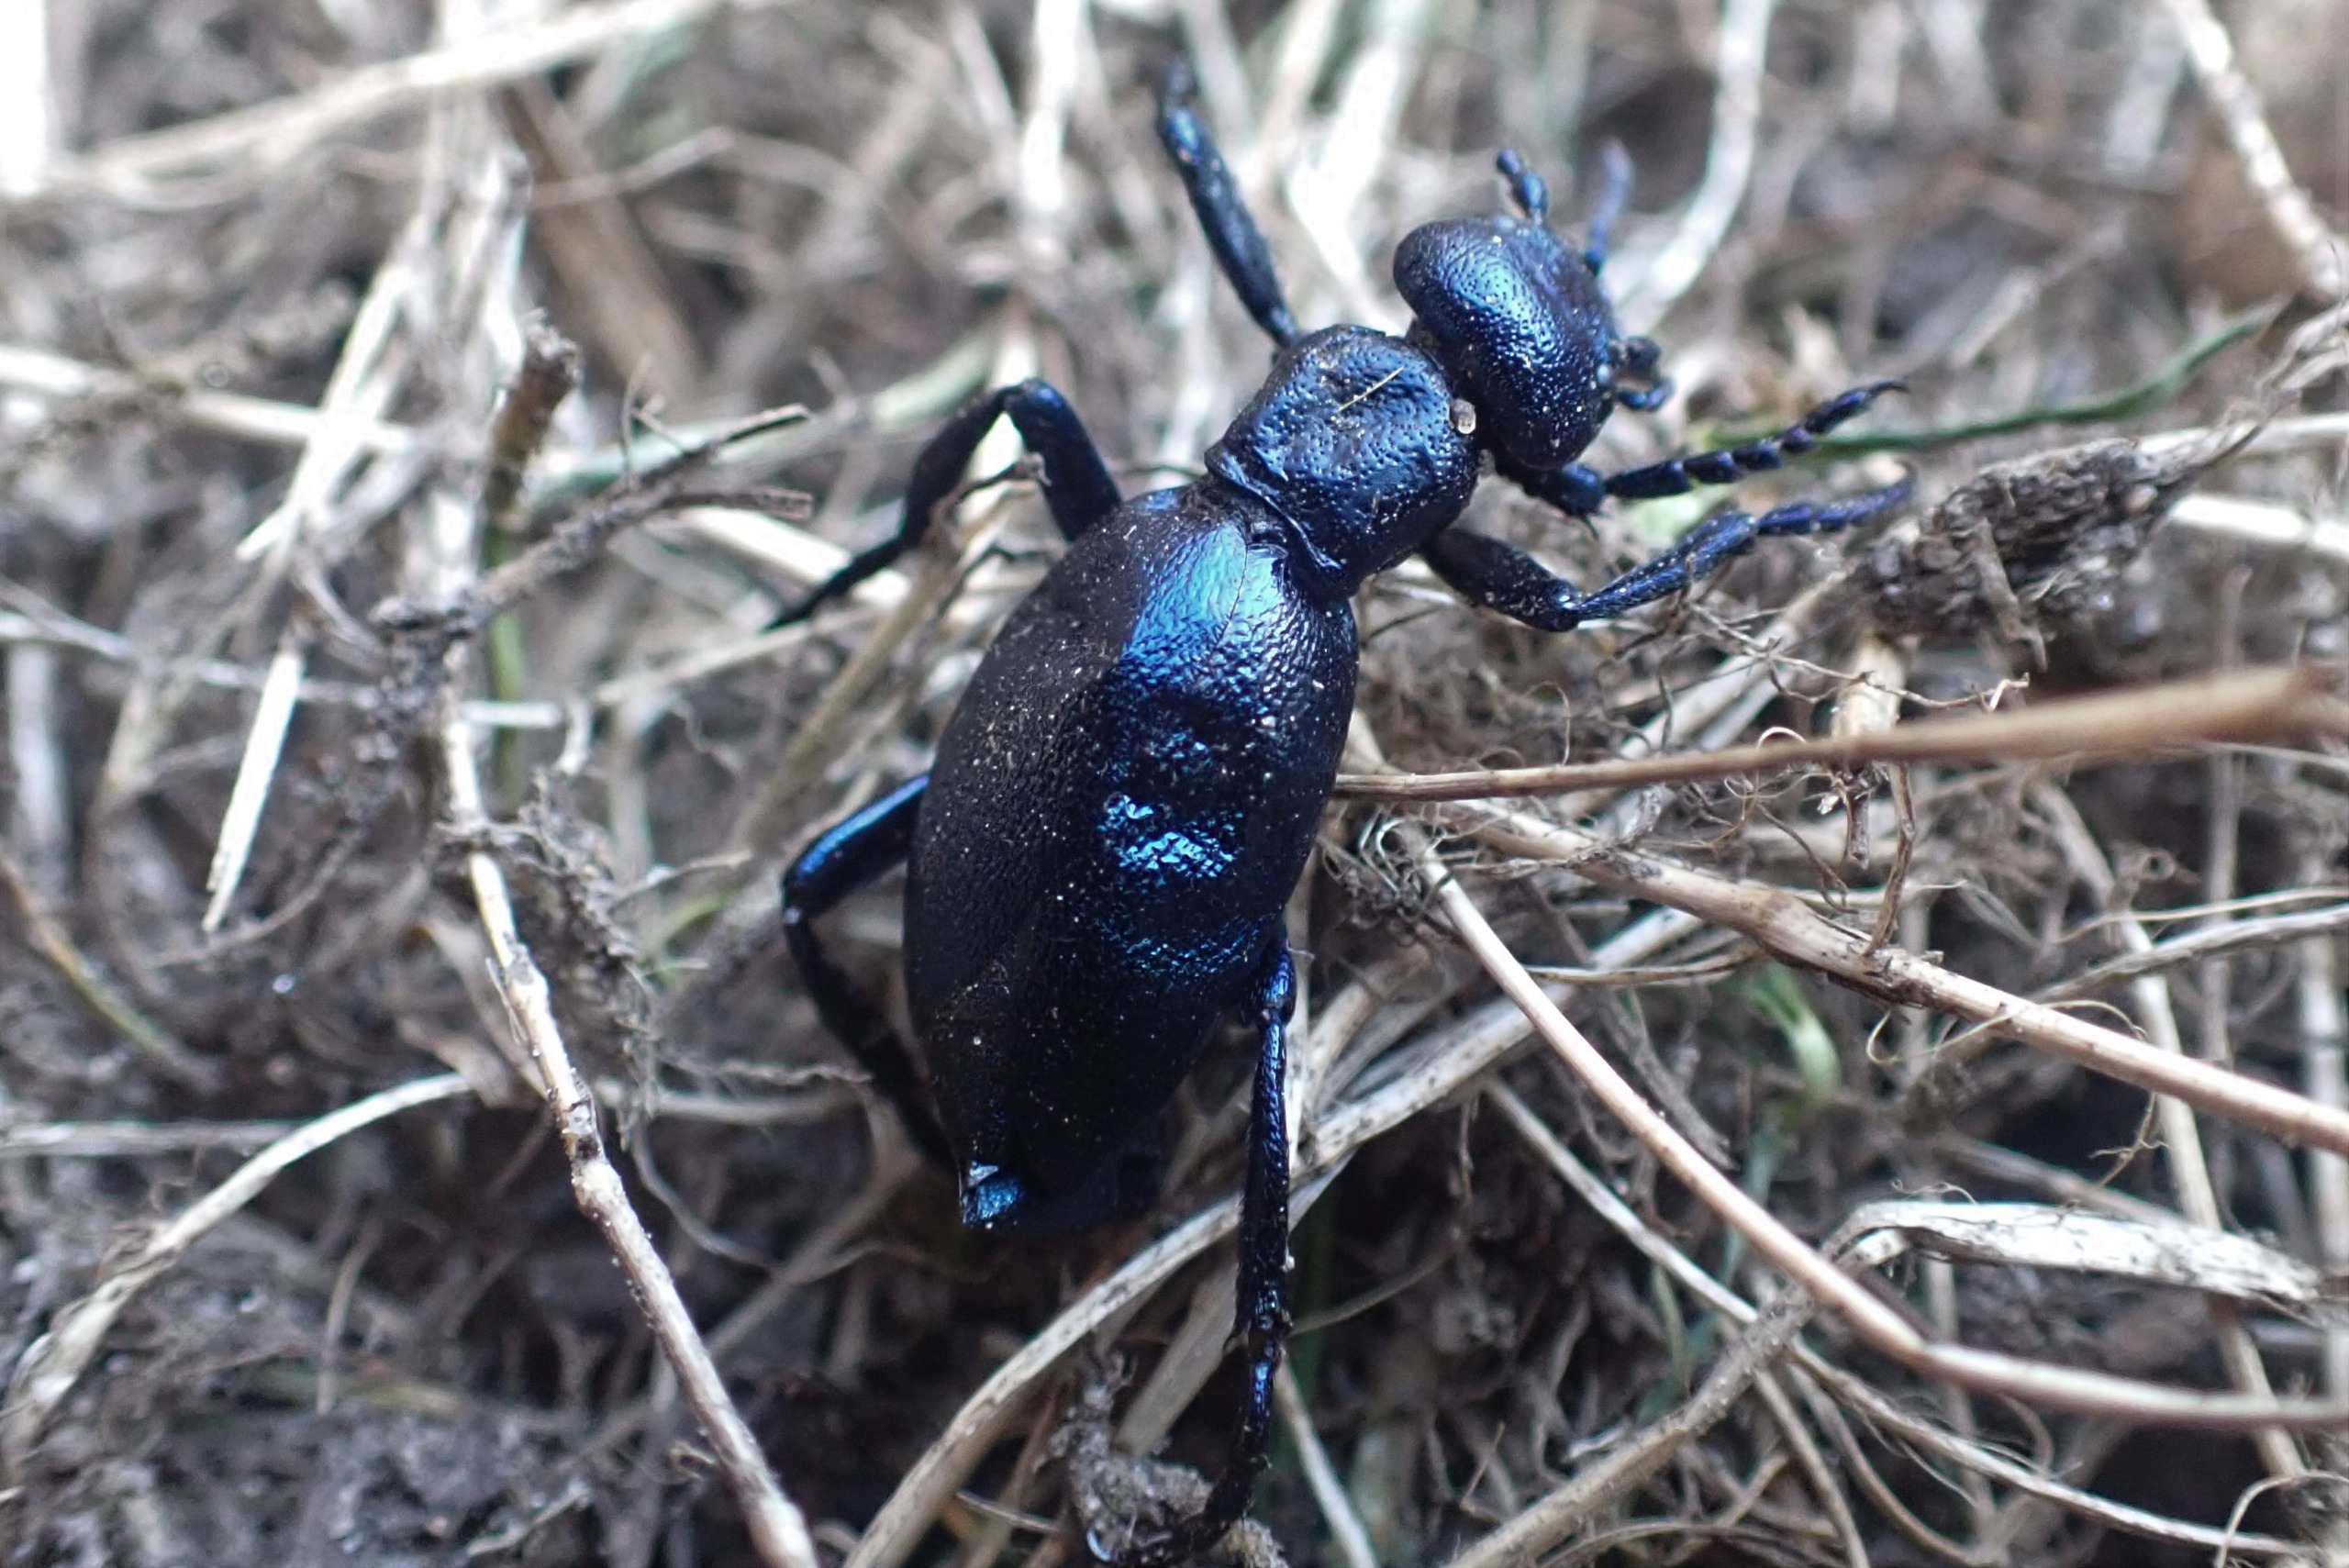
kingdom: Animalia
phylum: Arthropoda
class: Insecta
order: Coleoptera
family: Meloidae
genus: Meloe
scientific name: Meloe violaceus
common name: Blå oliebille
